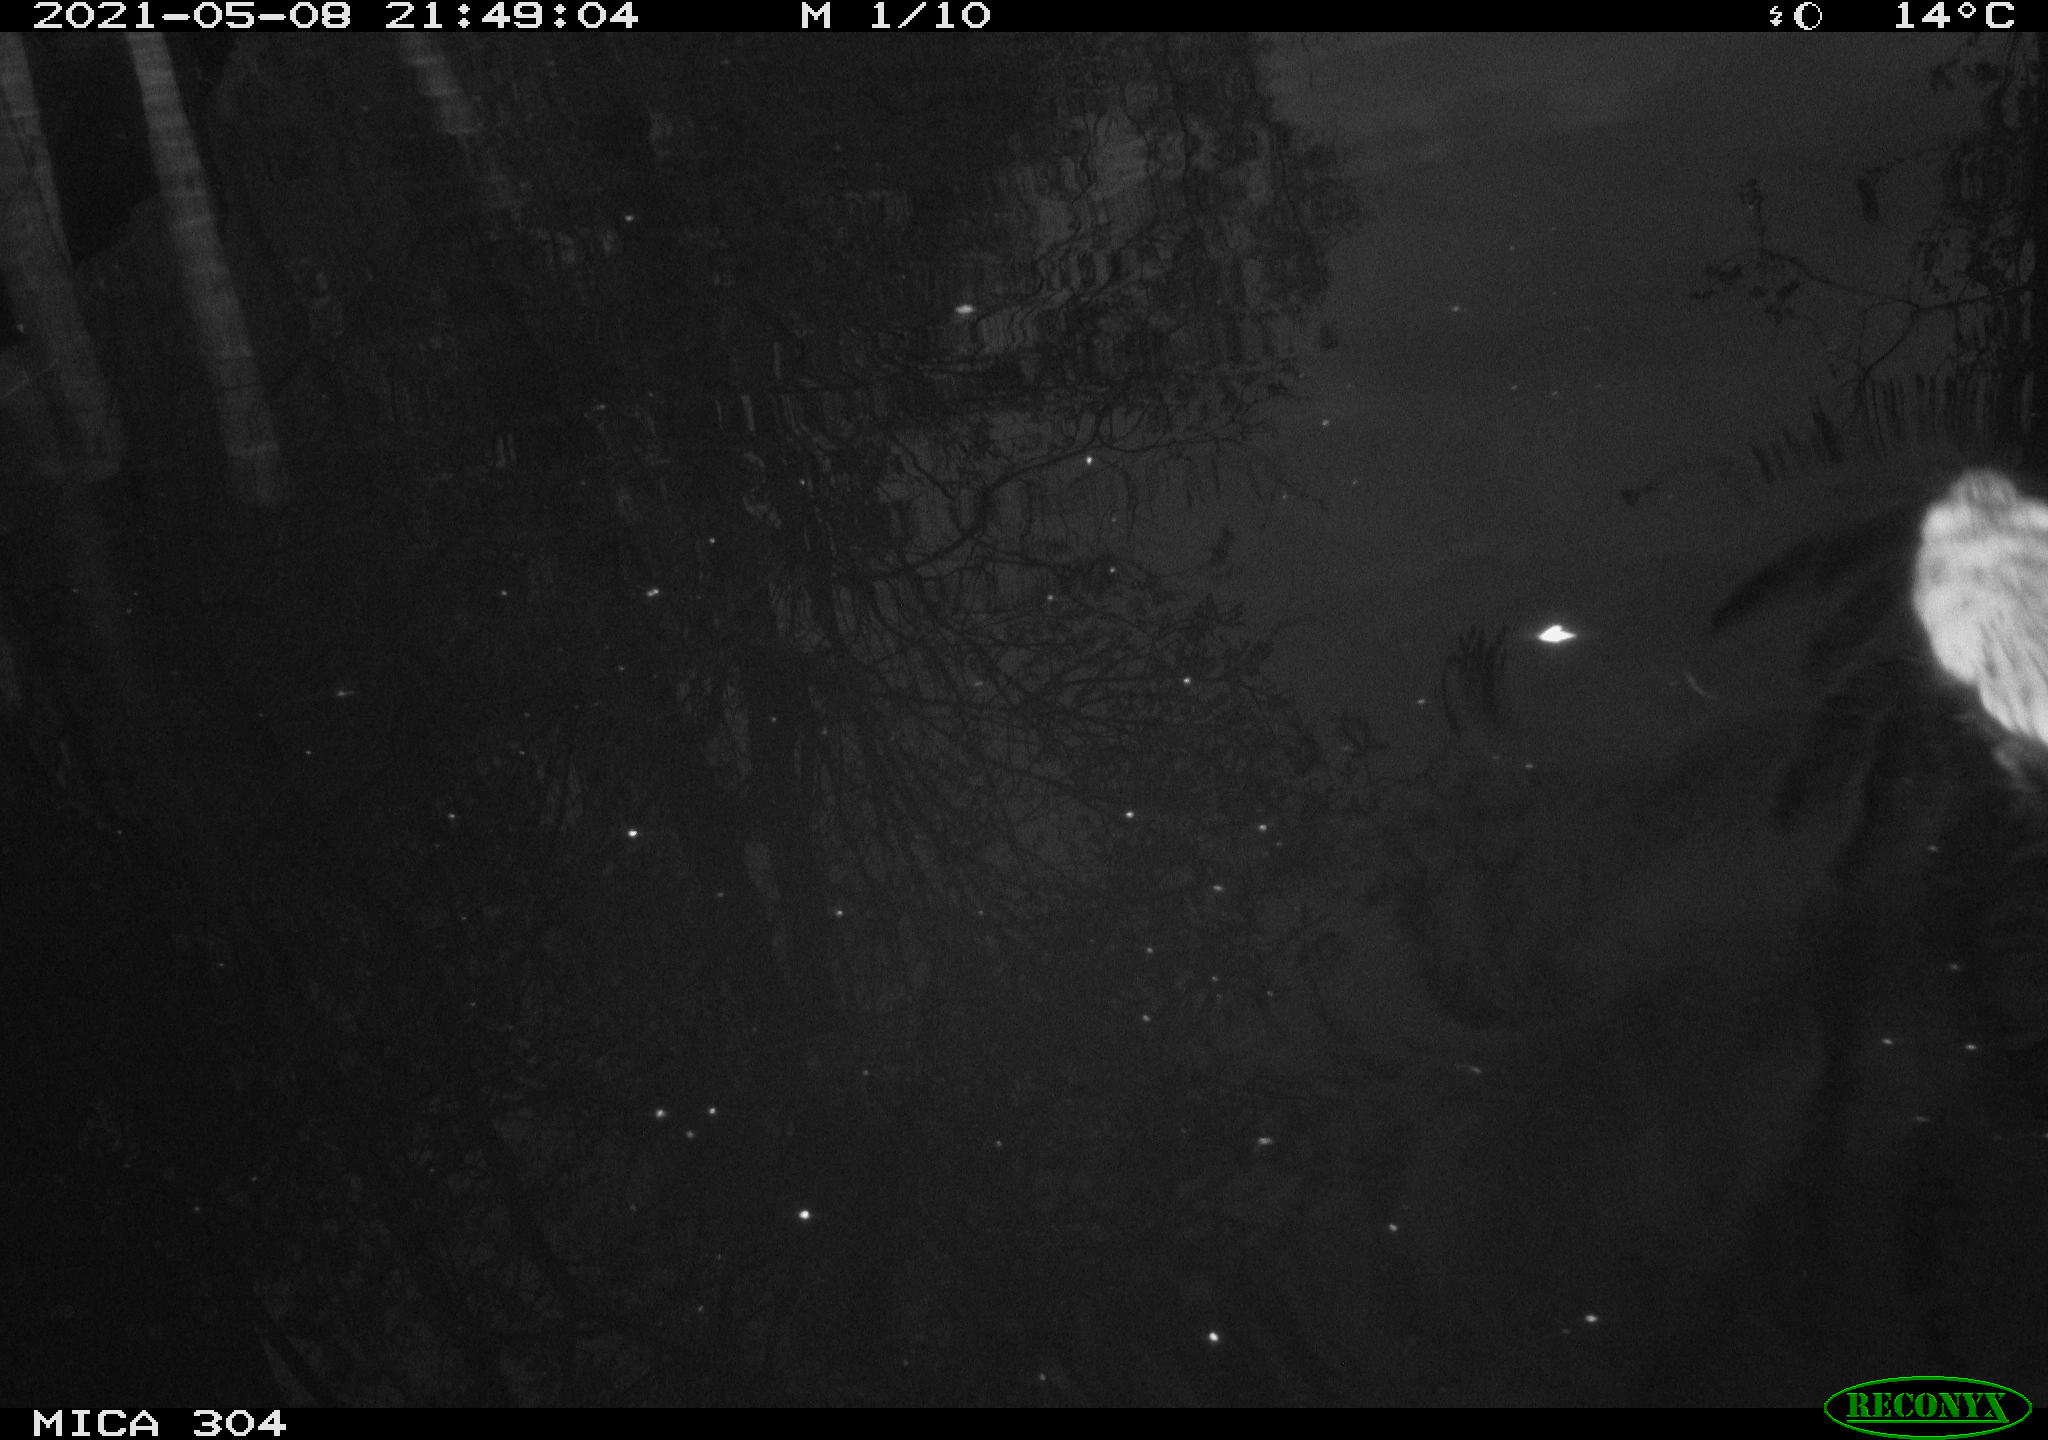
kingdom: Animalia
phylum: Chordata
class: Mammalia
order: Rodentia
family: Cricetidae
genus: Ondatra
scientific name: Ondatra zibethicus
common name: Muskrat
